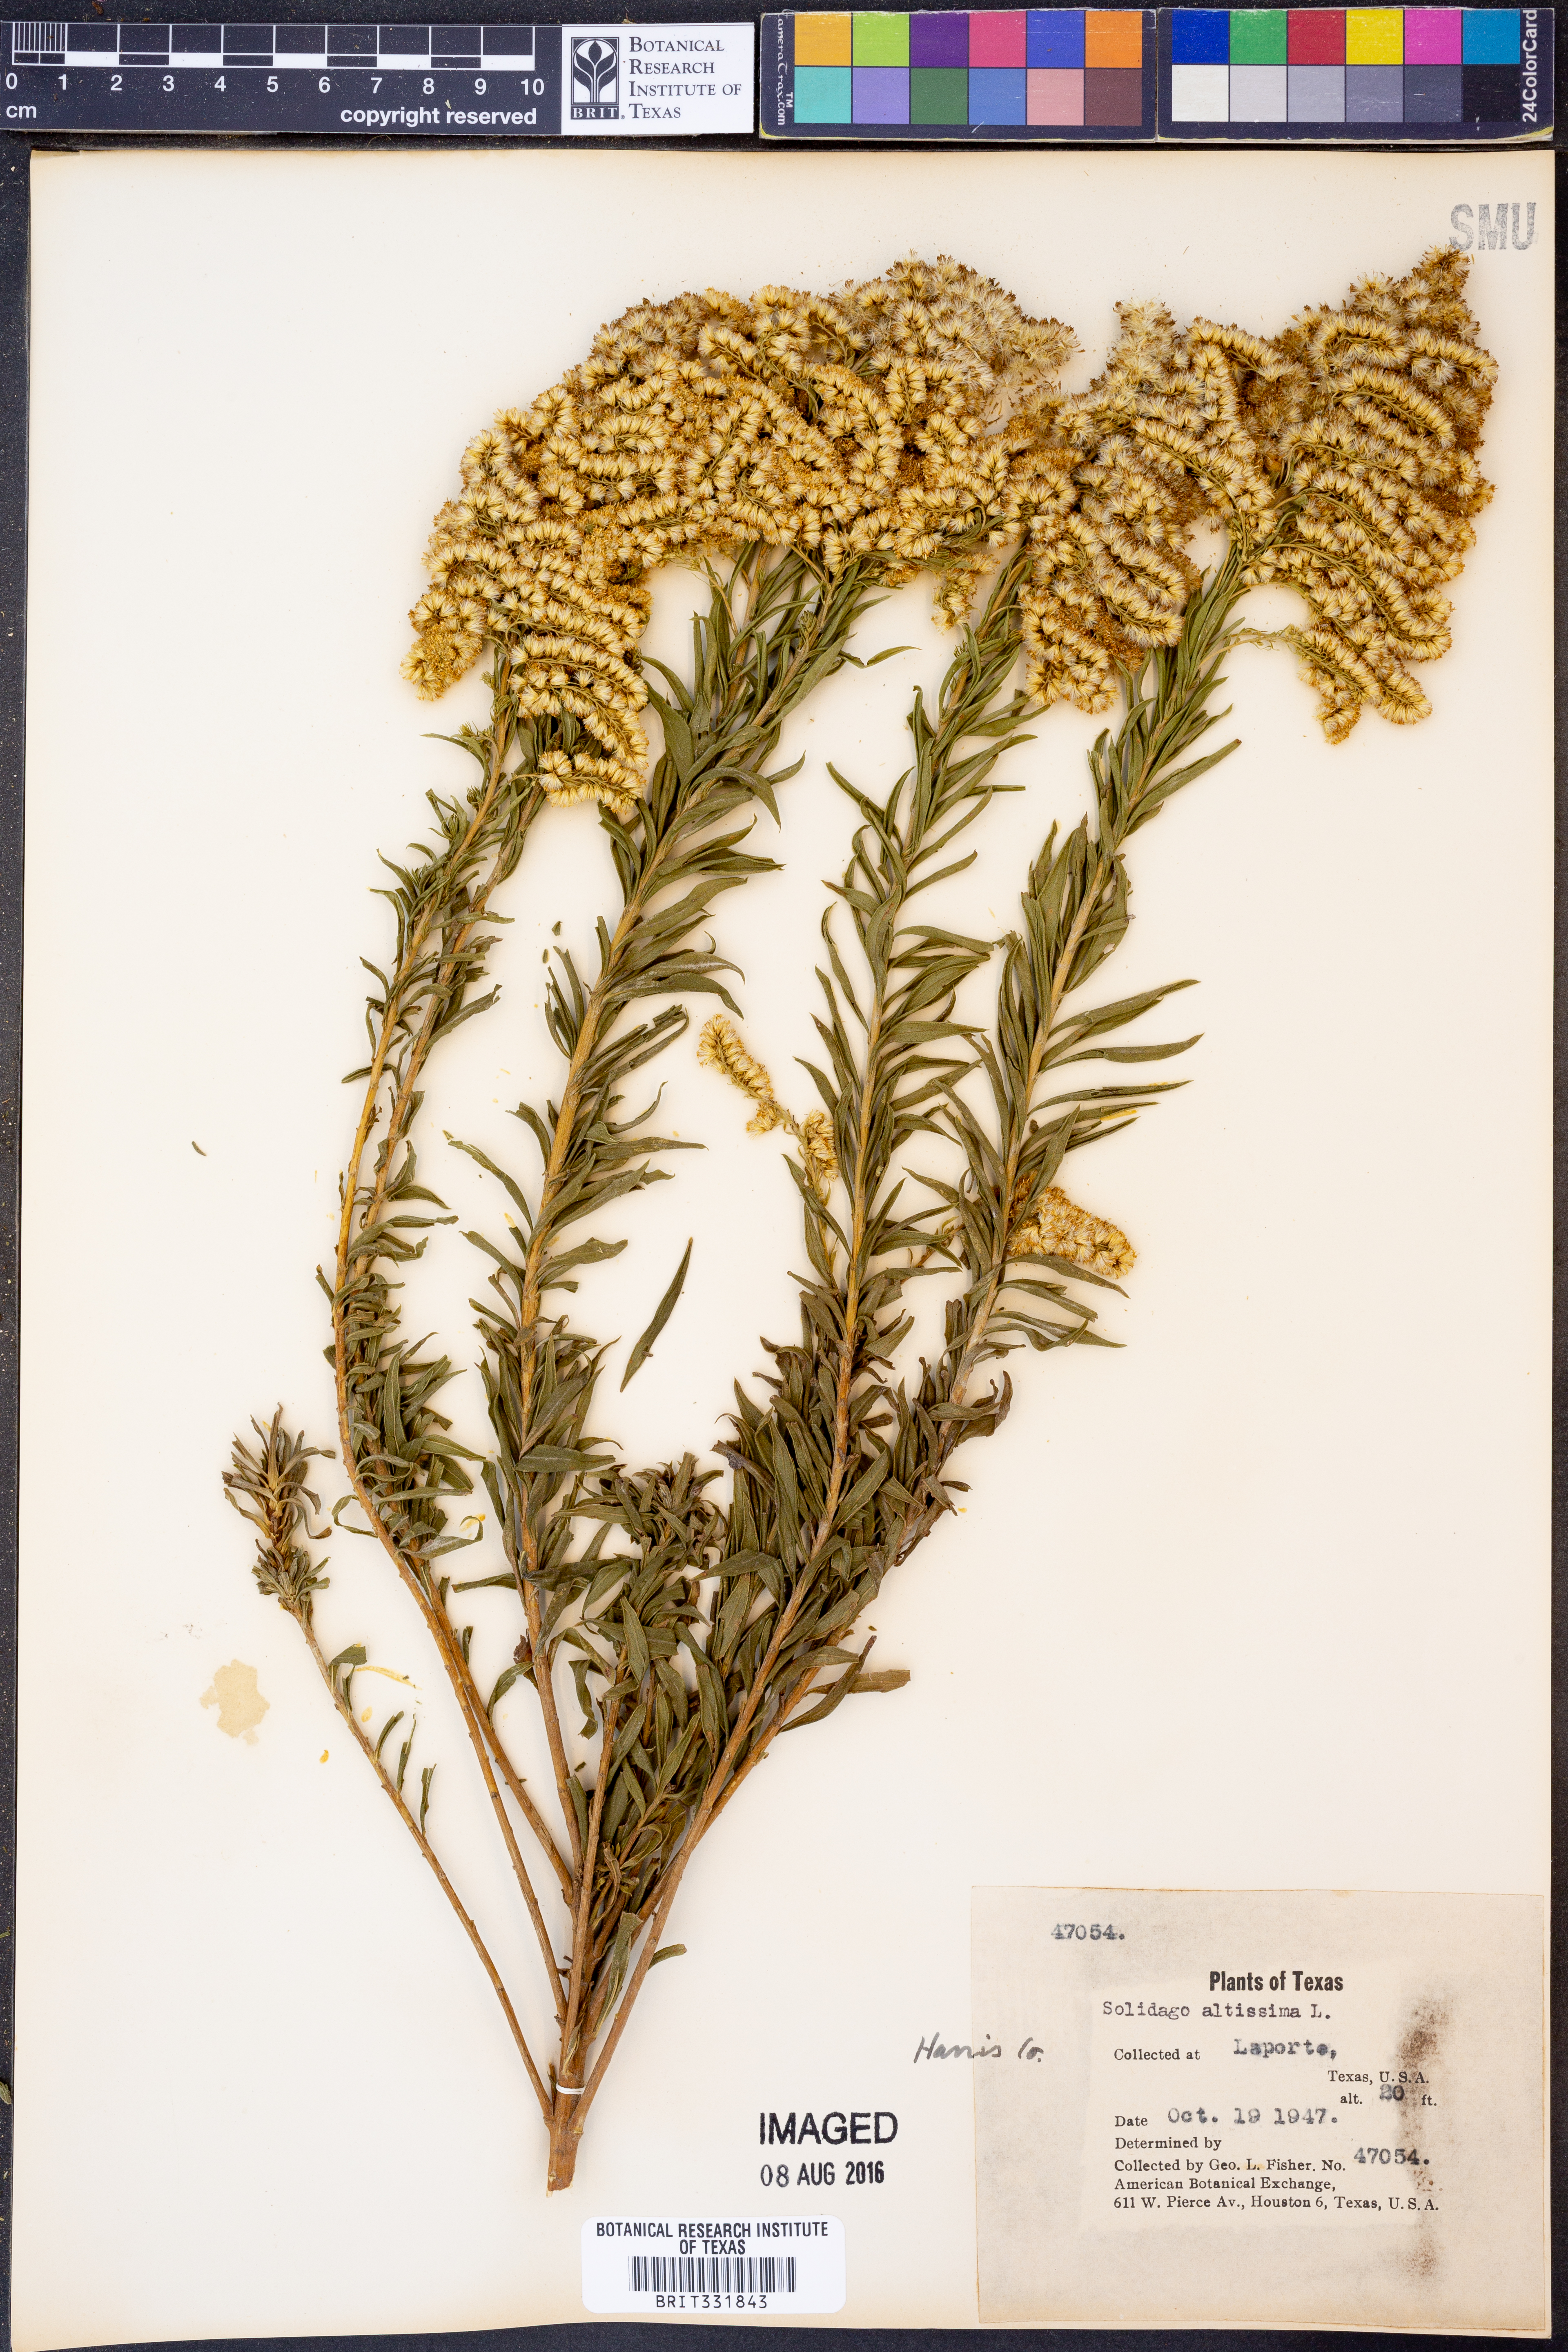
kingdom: Plantae
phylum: Tracheophyta
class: Magnoliopsida
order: Asterales
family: Asteraceae
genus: Solidago
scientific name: Solidago altissima
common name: Late goldenrod
